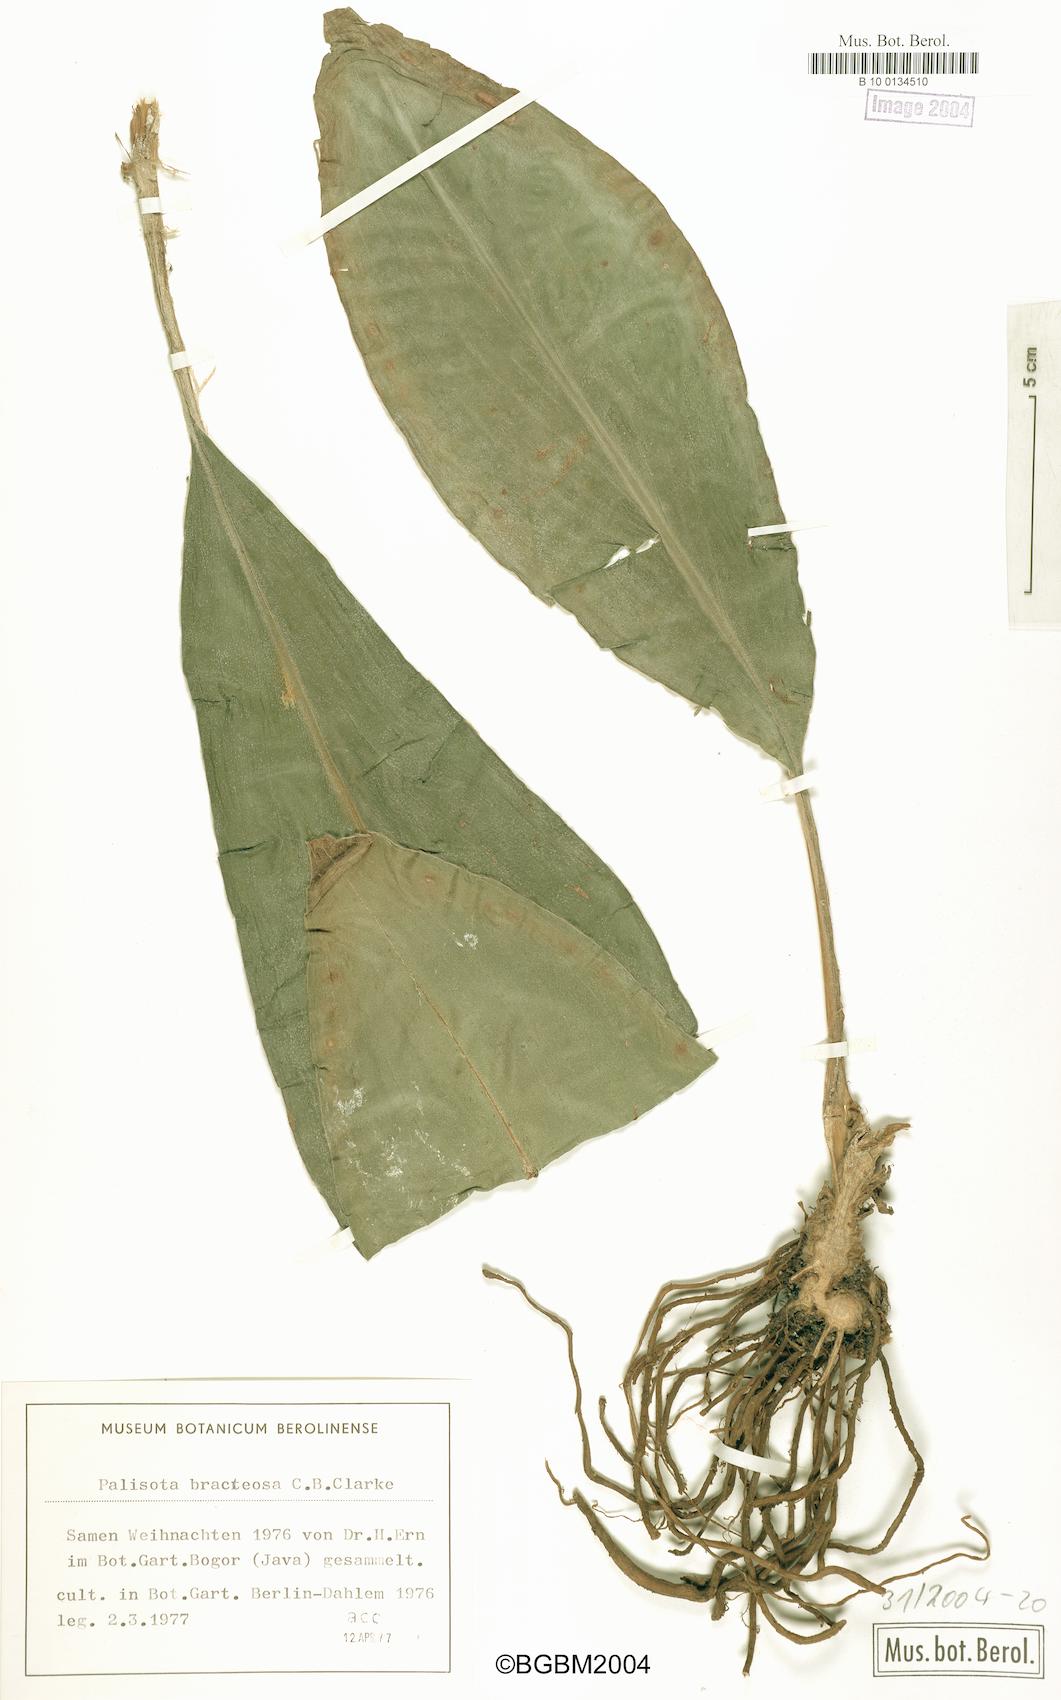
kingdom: Plantae
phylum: Tracheophyta
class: Liliopsida
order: Commelinales
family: Commelinaceae
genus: Palisota
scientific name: Palisota bracteosa
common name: Palisota
